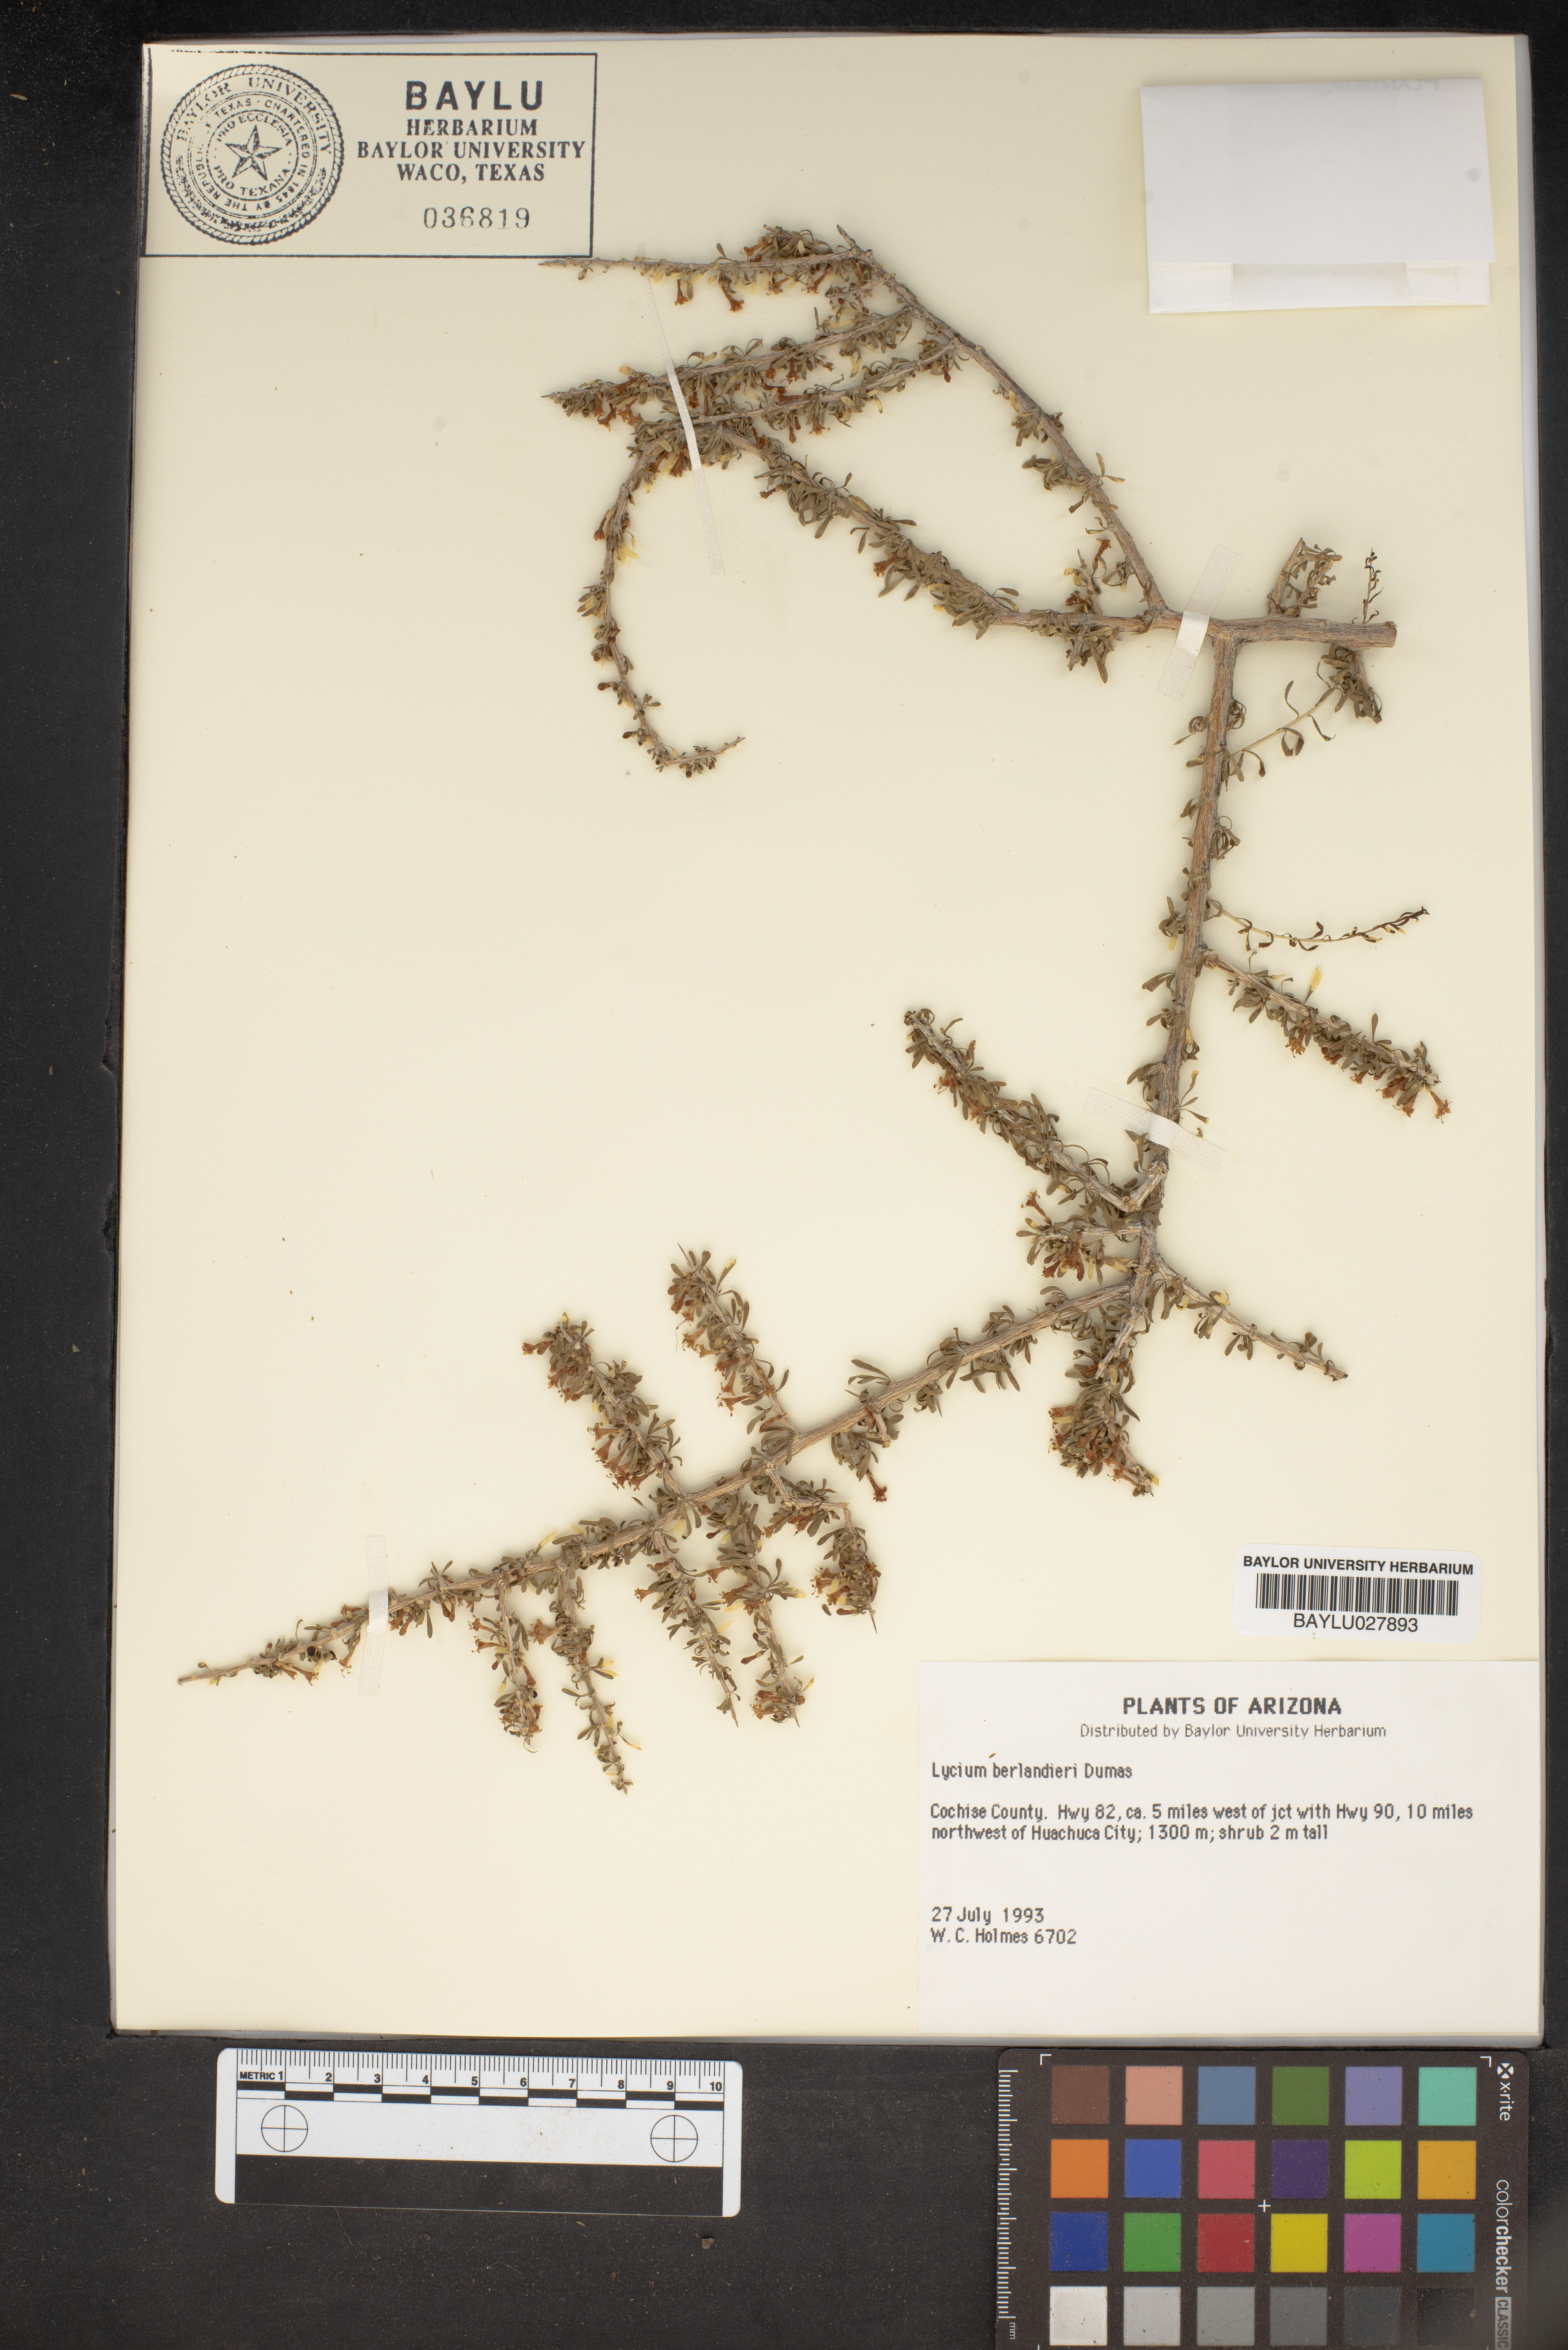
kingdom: Plantae
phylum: Tracheophyta
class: Magnoliopsida
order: Solanales
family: Solanaceae
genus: Lycium
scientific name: Lycium berlandieri
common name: Berlandier wolfberry
